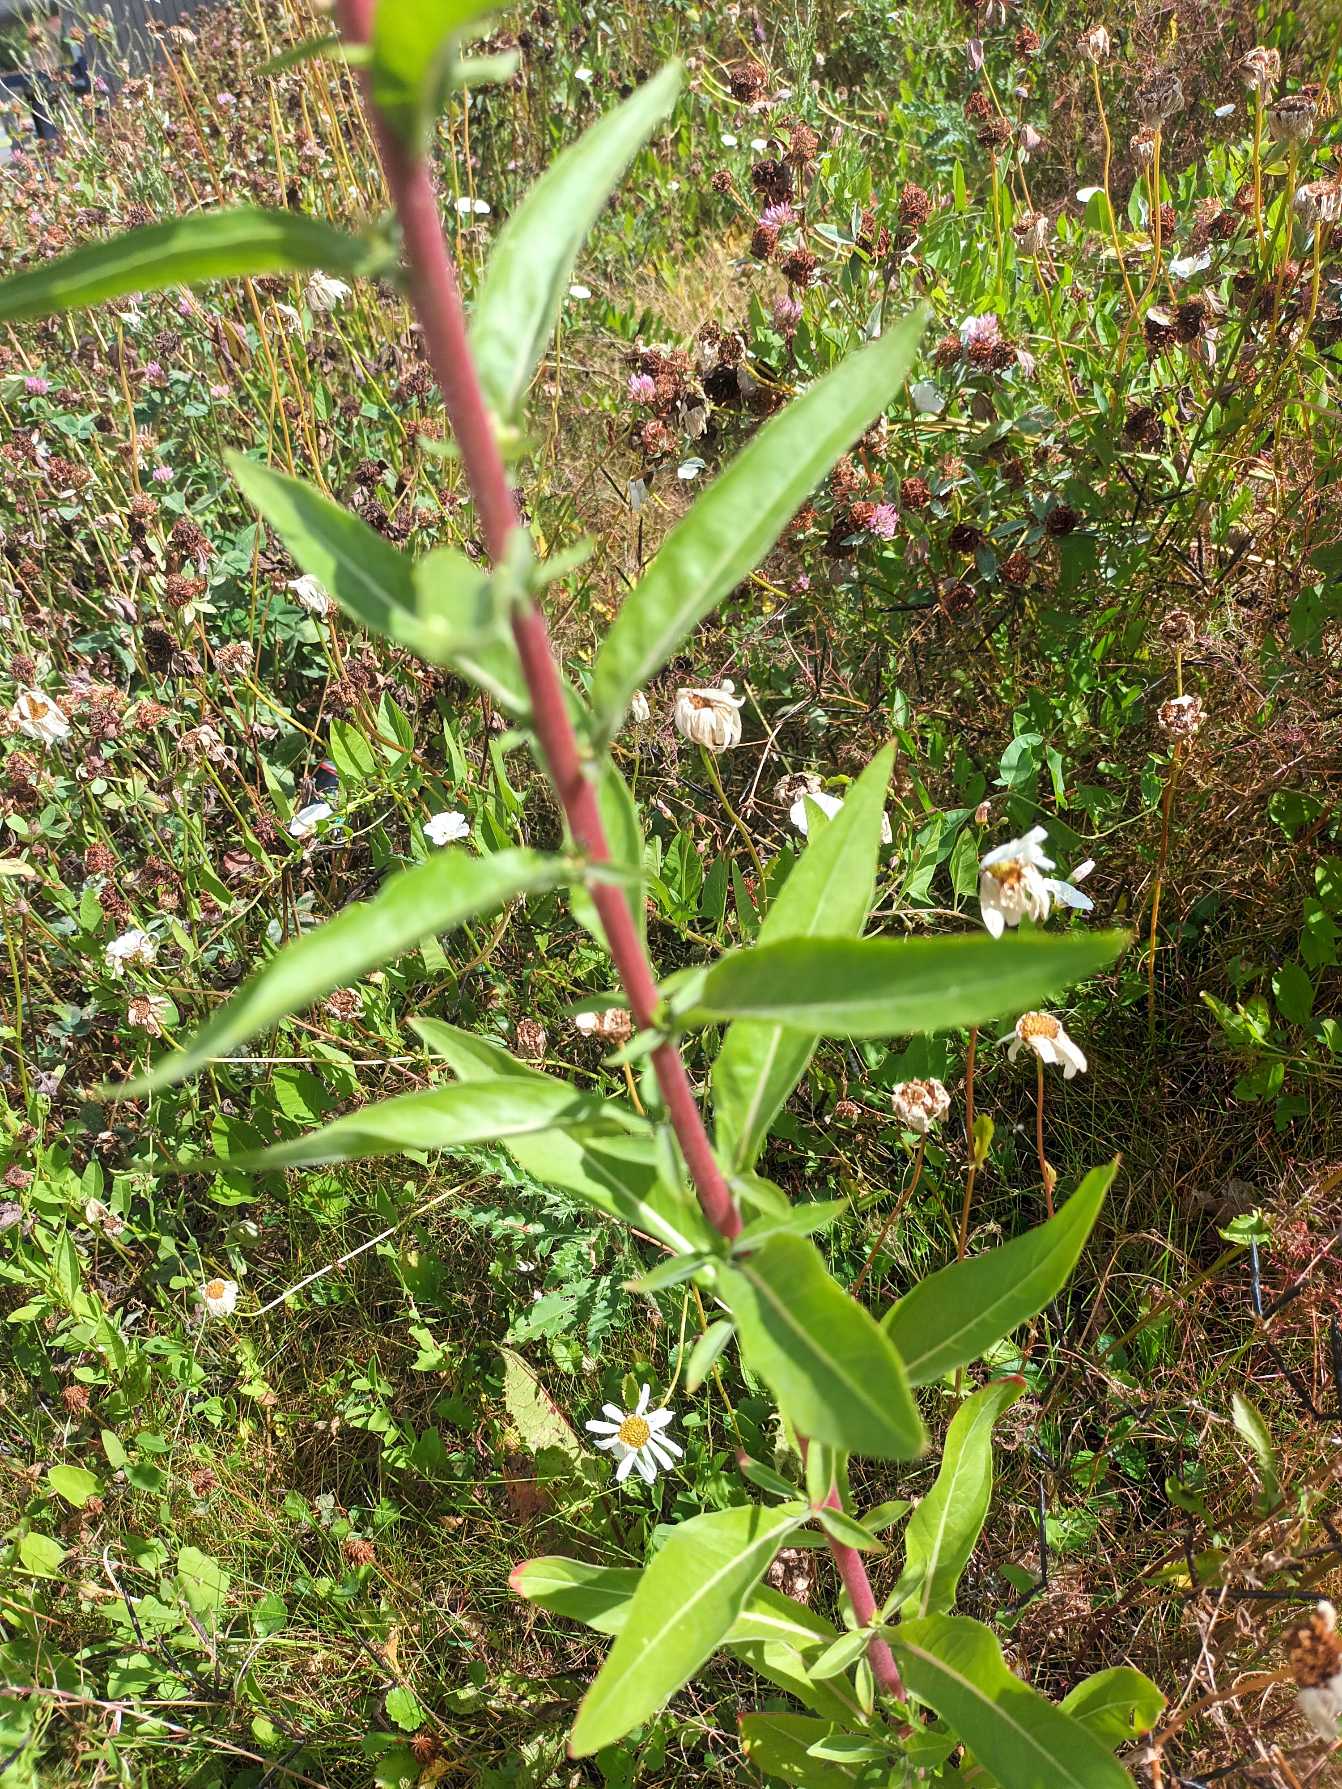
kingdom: Plantae
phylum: Tracheophyta
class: Magnoliopsida
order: Myrtales
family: Onagraceae
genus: Oenothera
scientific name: Oenothera fallax
